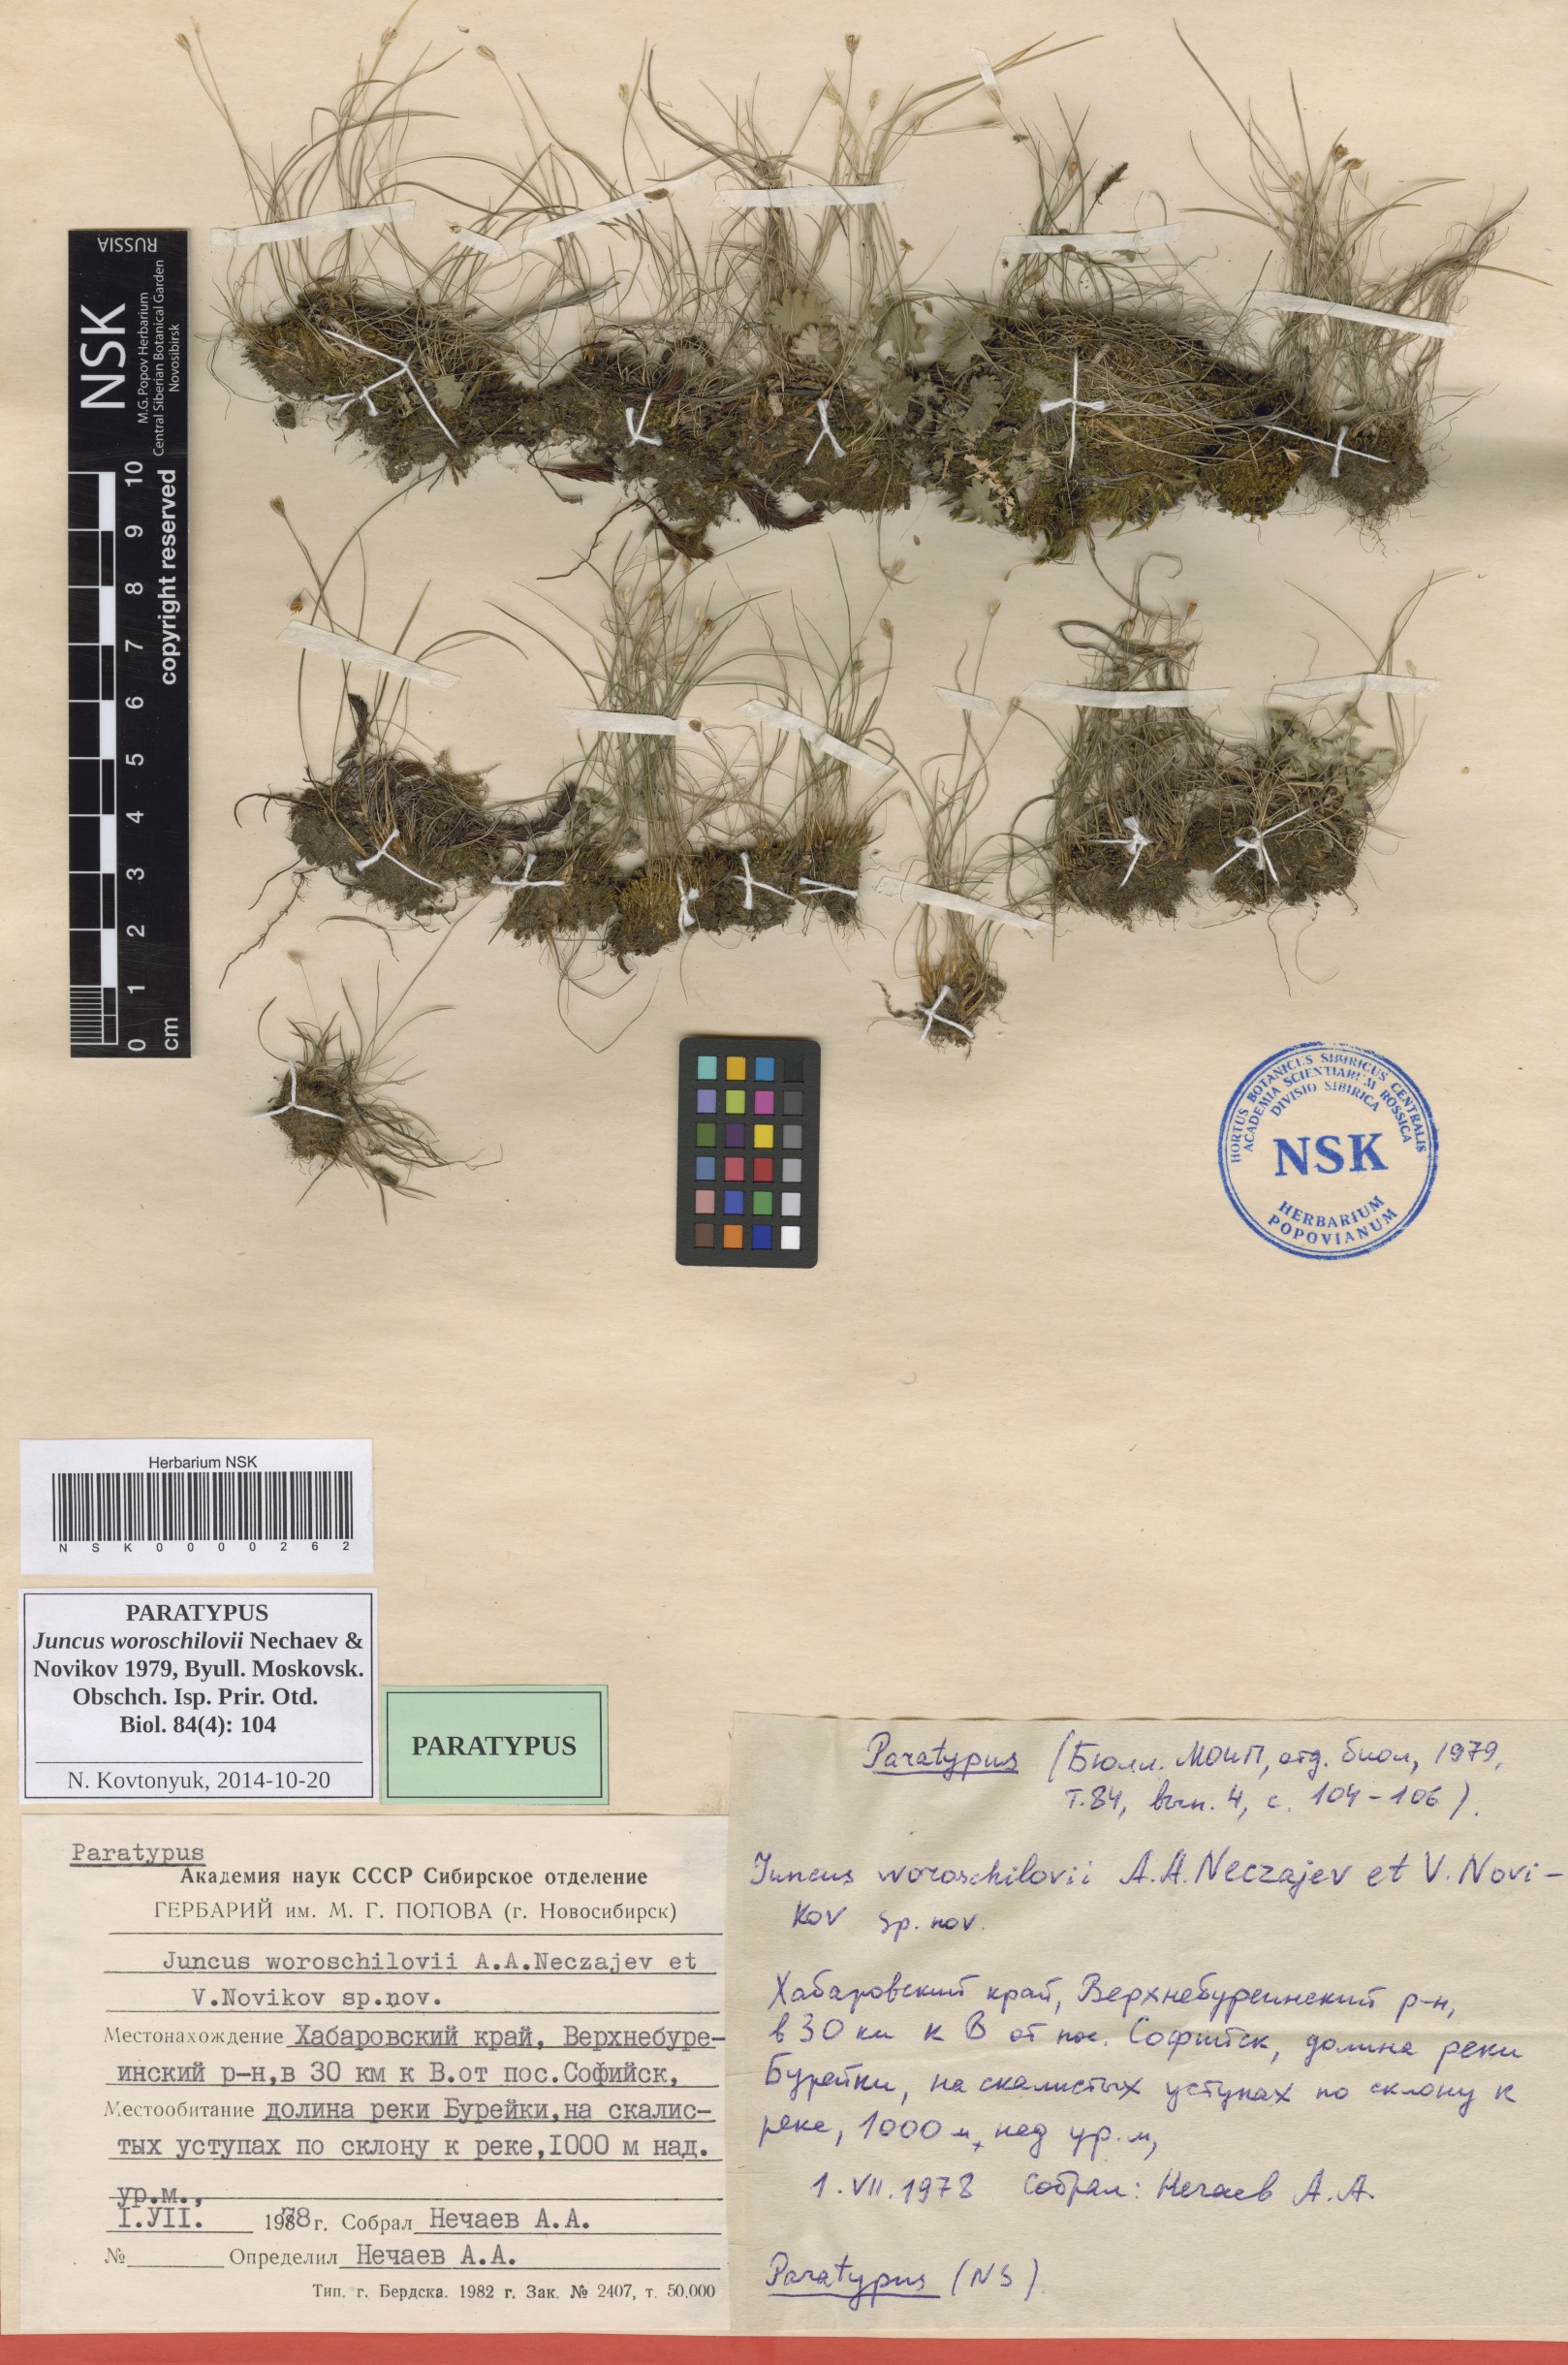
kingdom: Plantae
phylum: Tracheophyta
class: Liliopsida
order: Poales
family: Juncaceae
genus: Juncus
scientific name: Juncus potaninii
